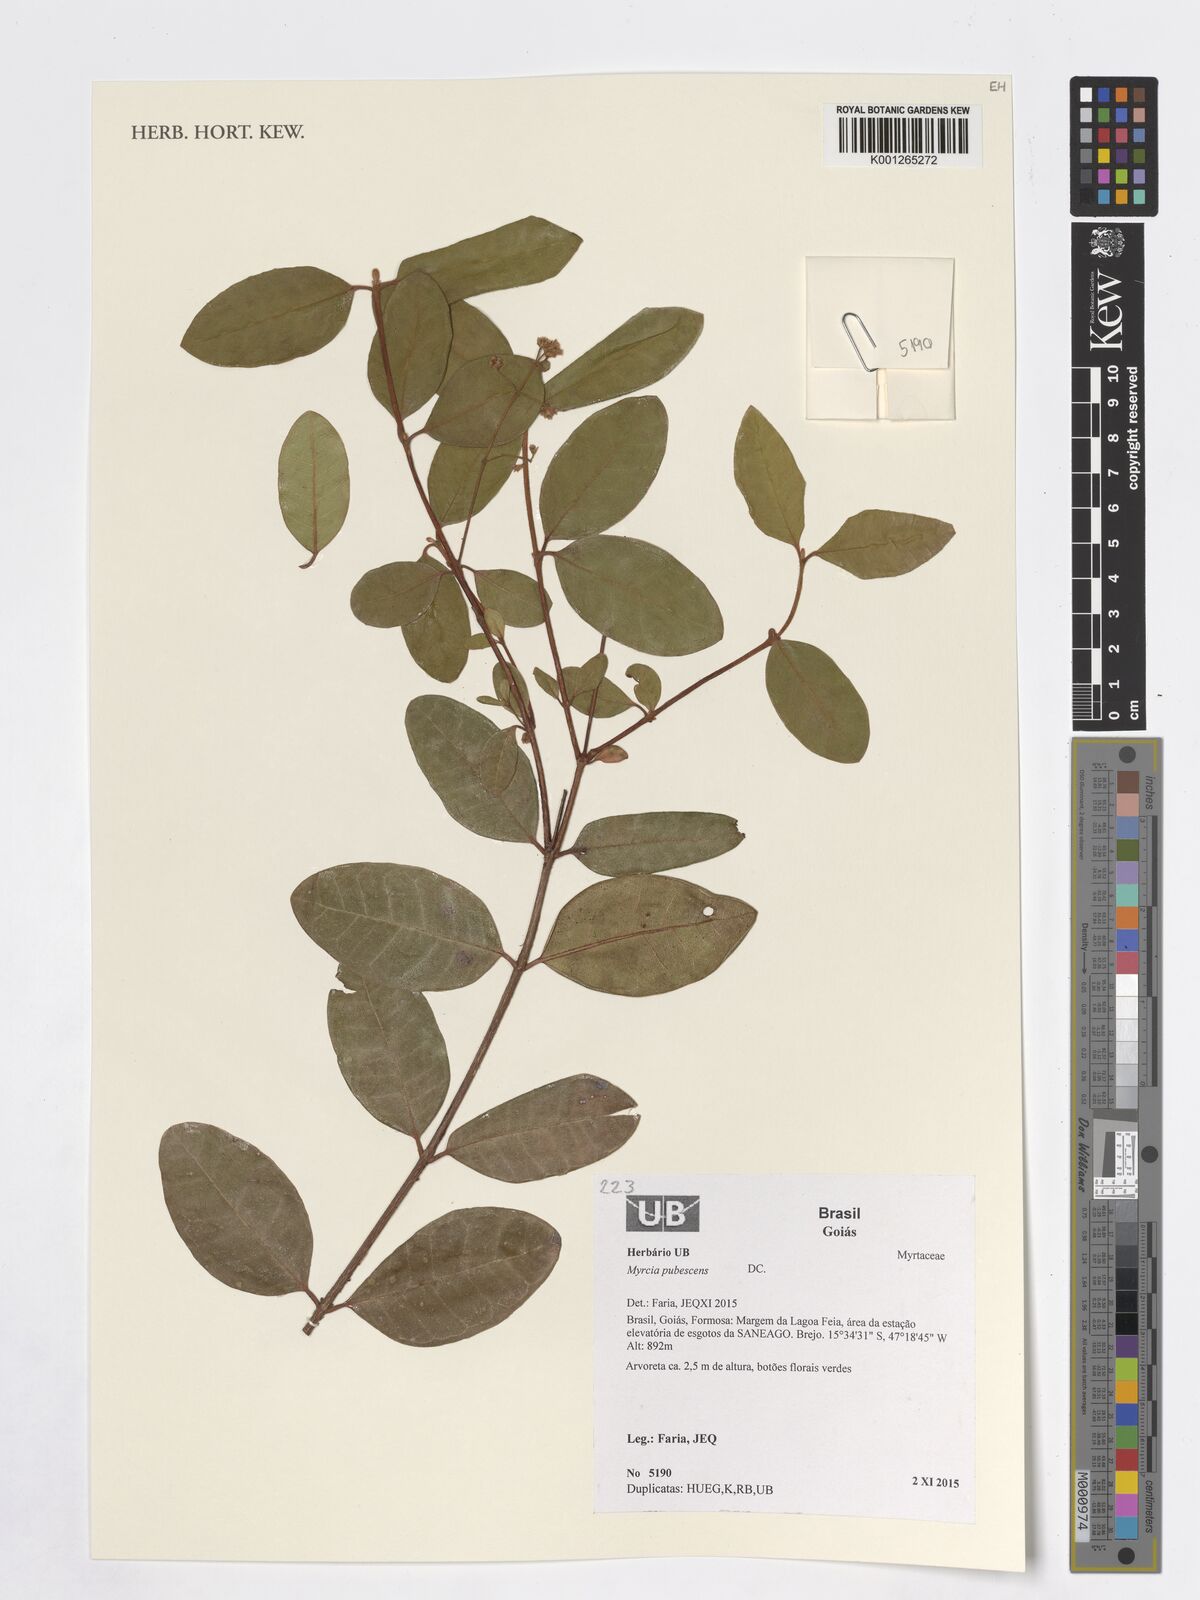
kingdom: Plantae
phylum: Tracheophyta
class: Magnoliopsida
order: Myrtales
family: Myrtaceae
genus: Myrcia
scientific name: Myrcia pubescens
